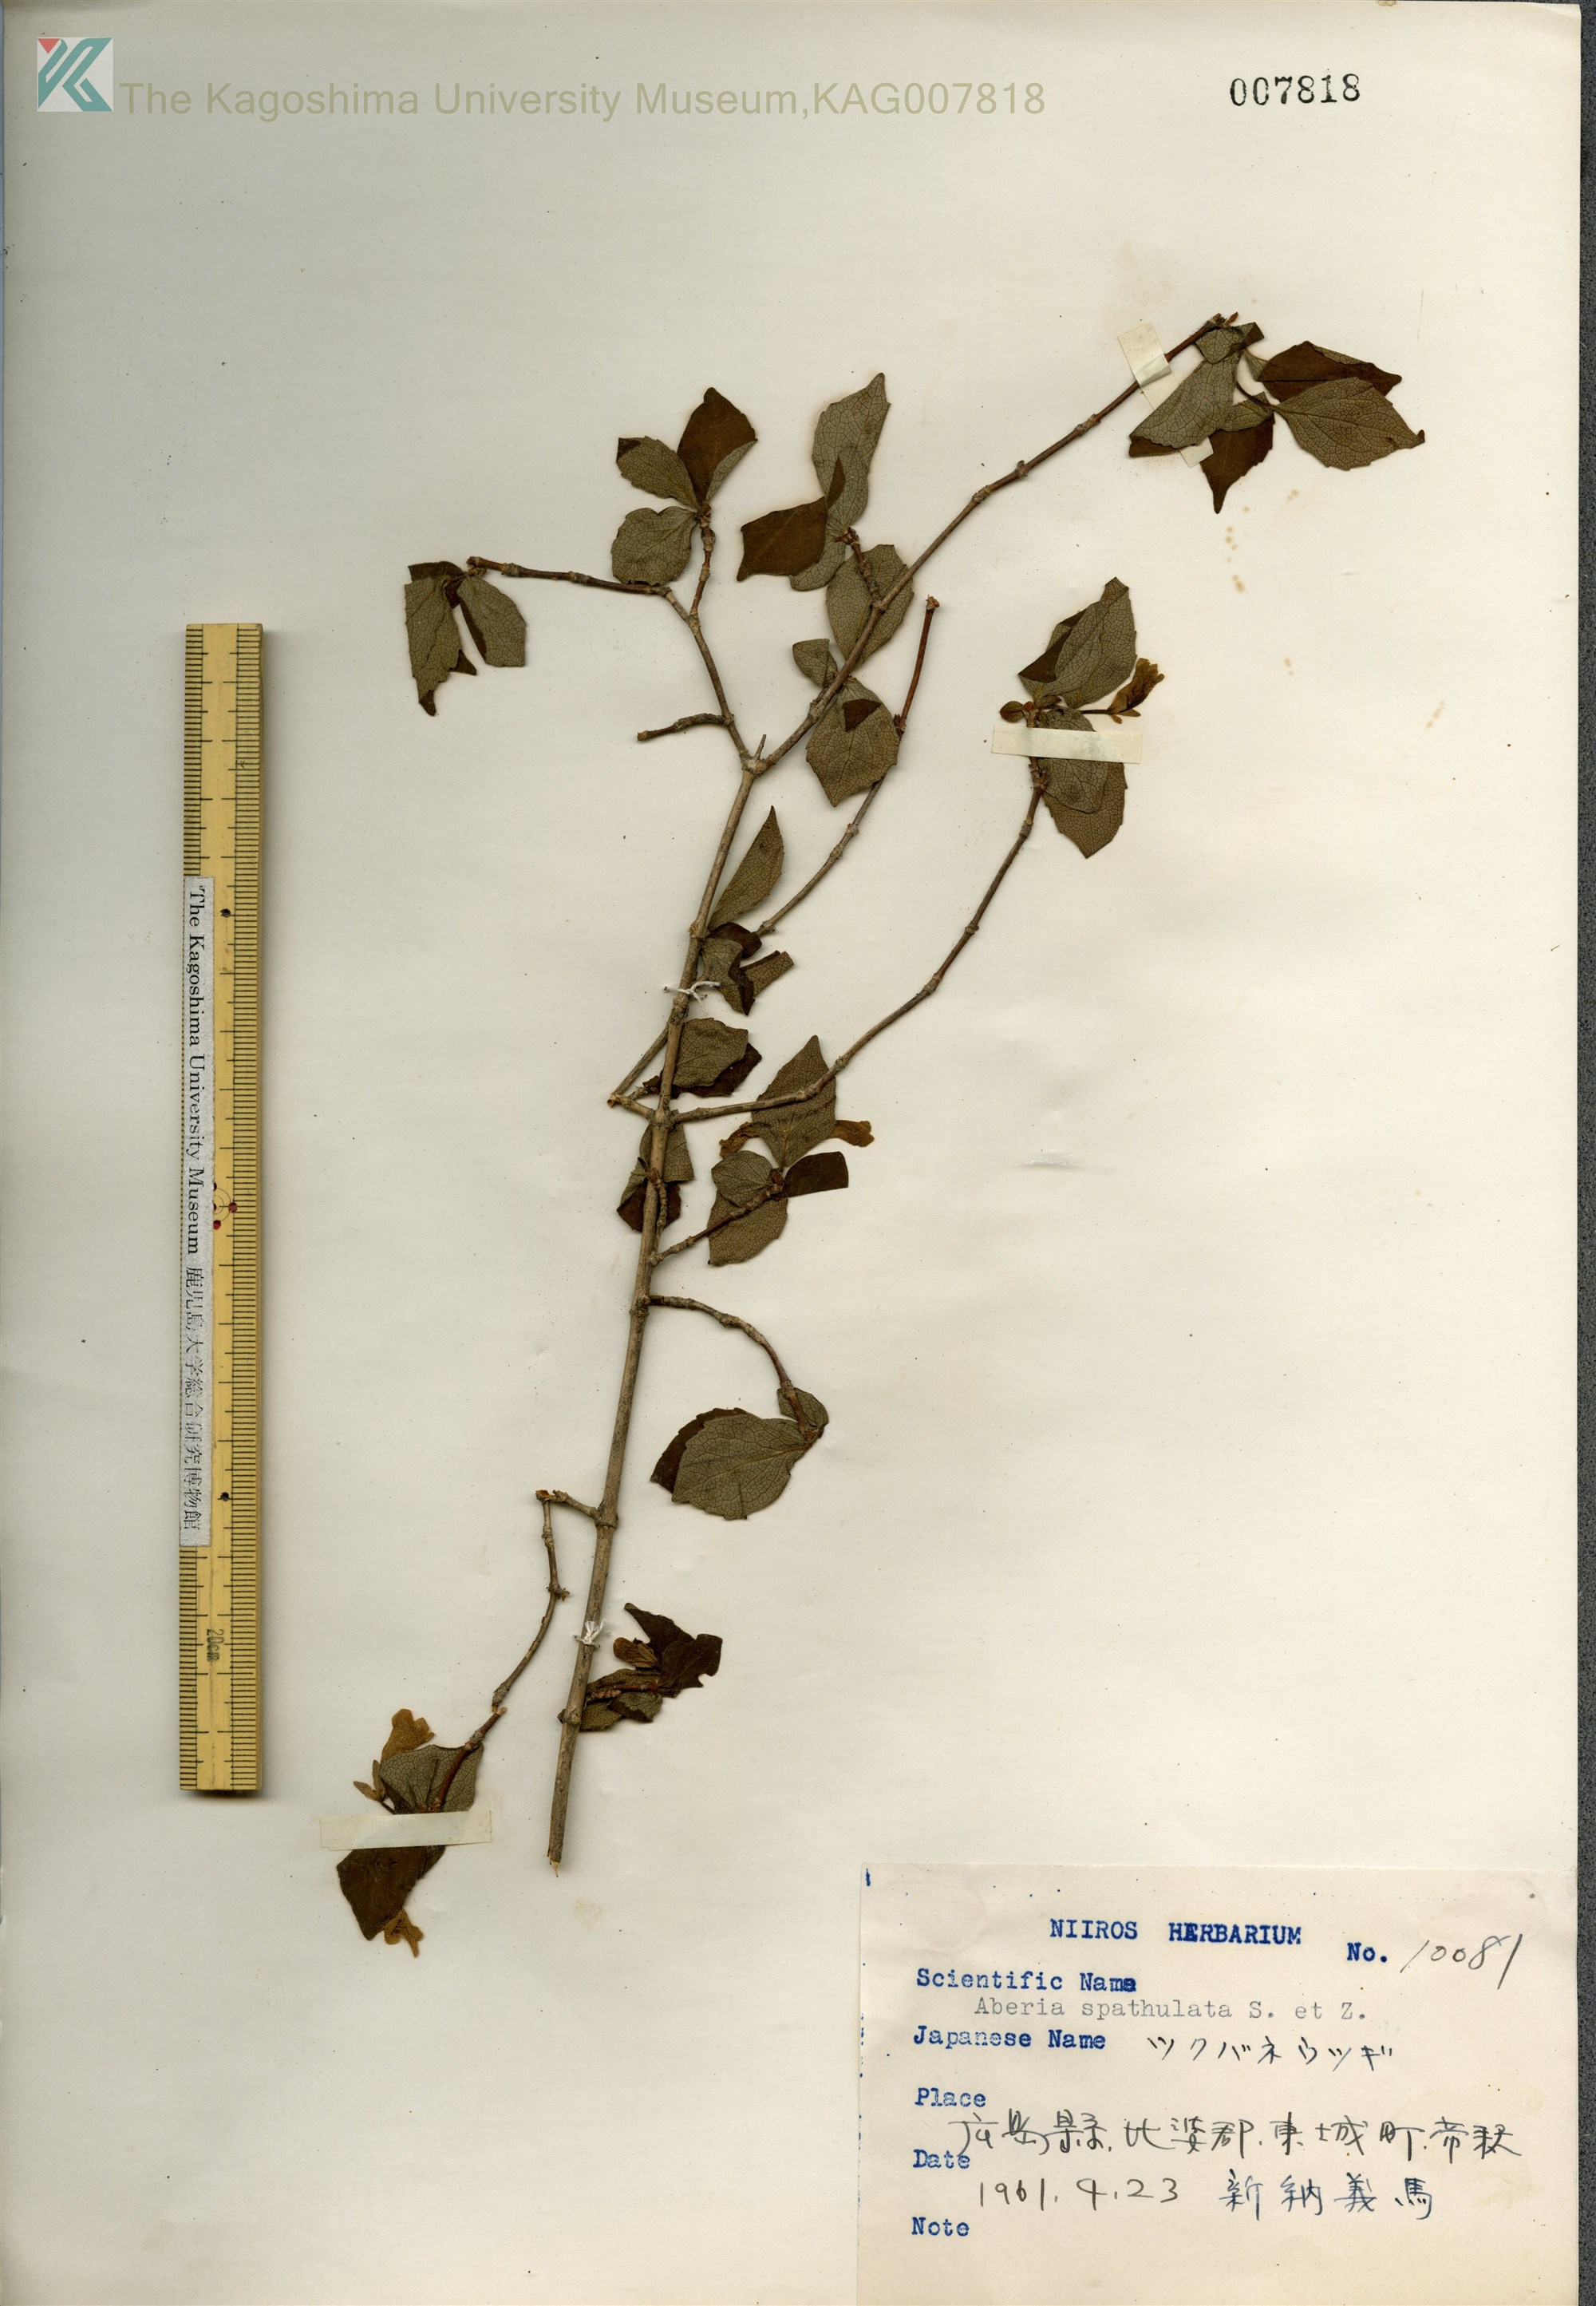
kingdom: Plantae
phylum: Tracheophyta
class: Magnoliopsida
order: Dipsacales
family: Caprifoliaceae
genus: Diabelia
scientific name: Diabelia spathulata
